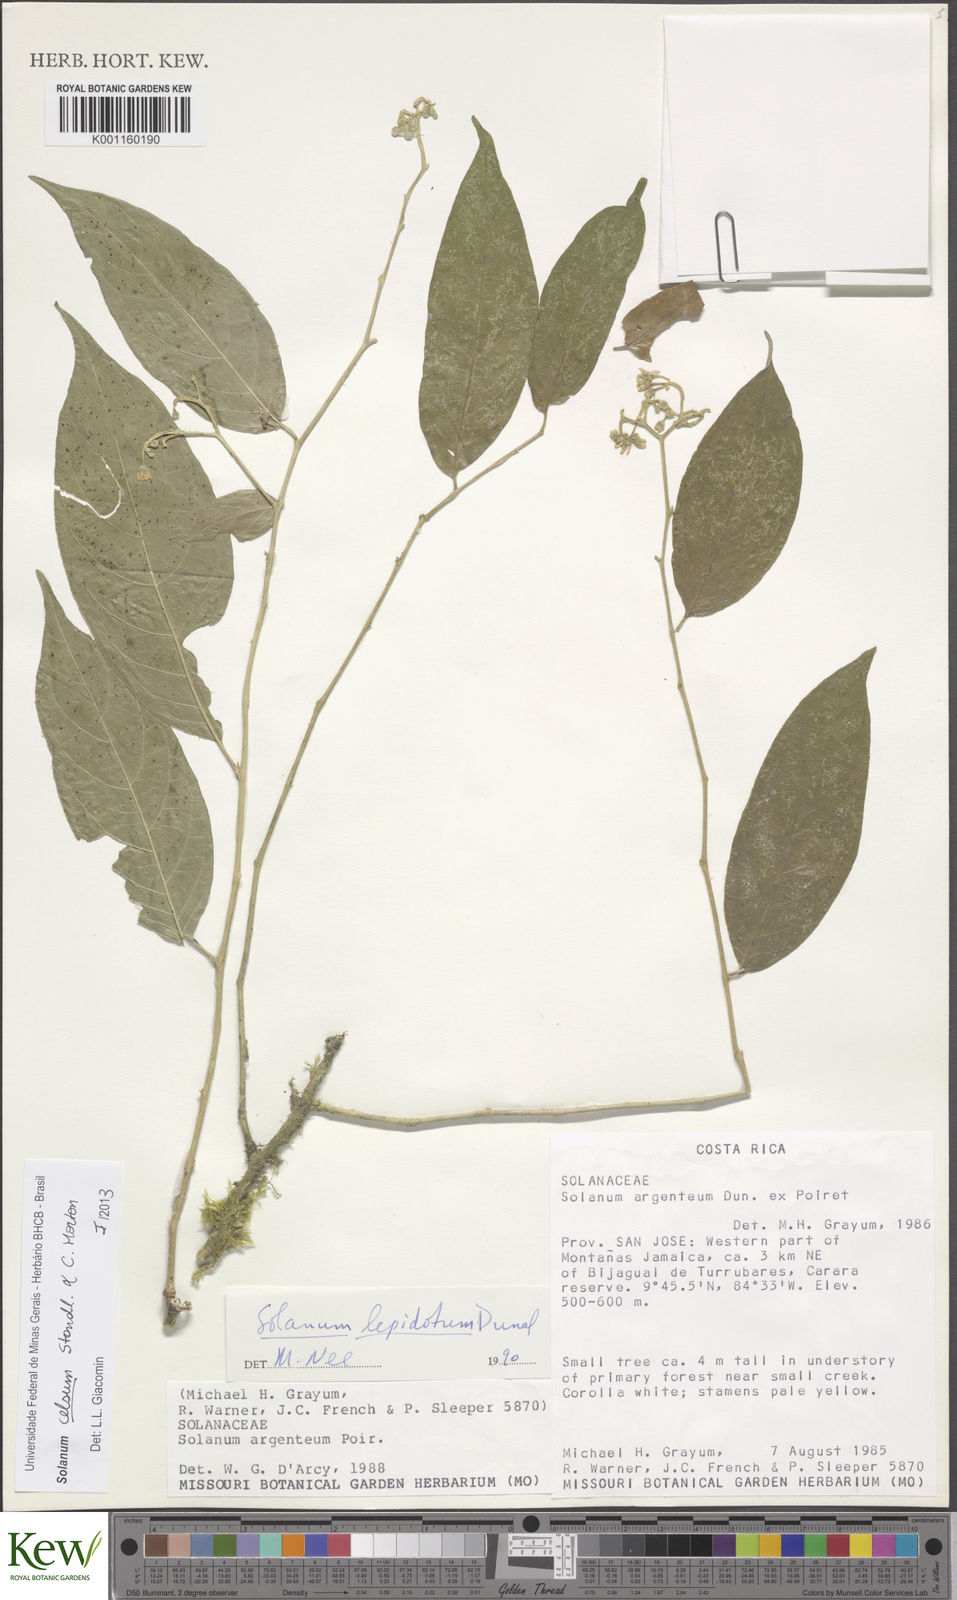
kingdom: Plantae
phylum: Tracheophyta
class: Magnoliopsida
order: Solanales
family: Solanaceae
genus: Solanum
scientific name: Solanum celsum
